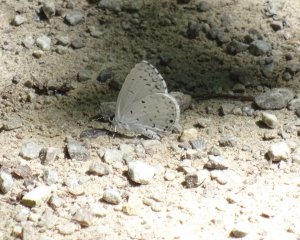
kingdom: Animalia
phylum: Arthropoda
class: Insecta
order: Lepidoptera
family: Lycaenidae
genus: Cyaniris
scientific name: Cyaniris neglecta
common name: Summer Azure
